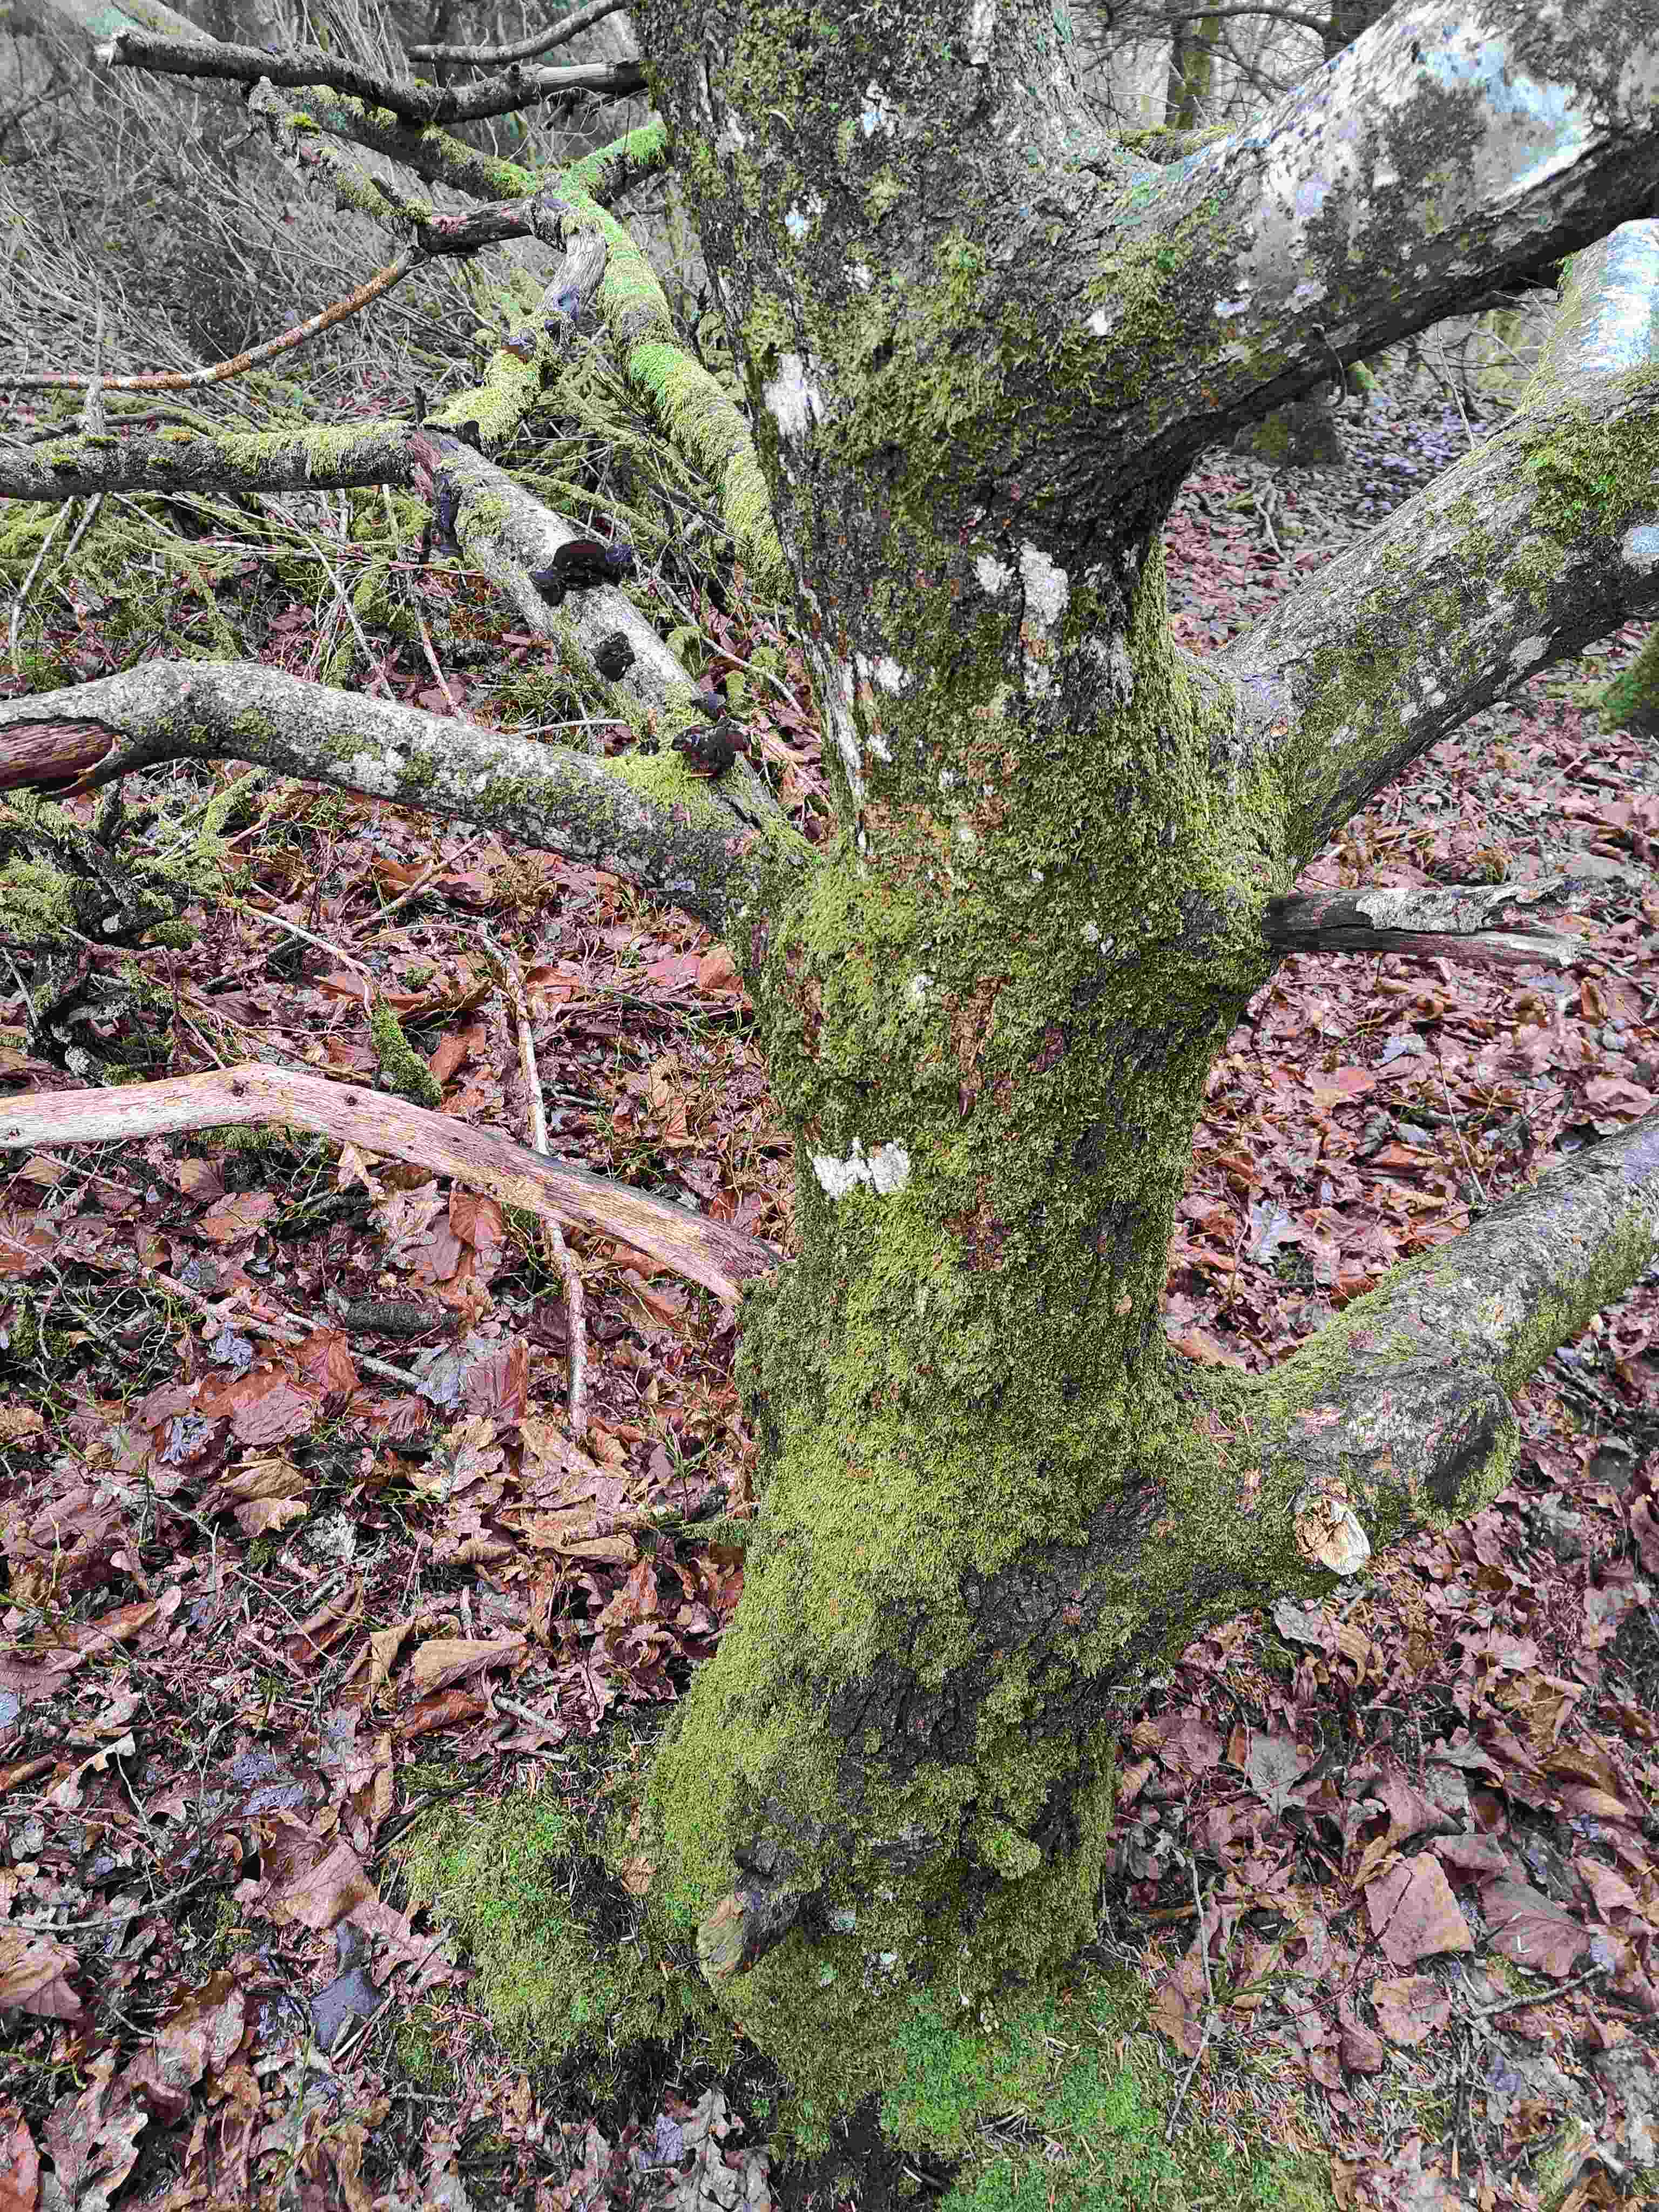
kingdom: Fungi
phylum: Basidiomycota
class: Agaricomycetes
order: Auriculariales
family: Auriculariaceae
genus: Exidia
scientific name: Exidia glandulosa
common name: ege-bævretop
